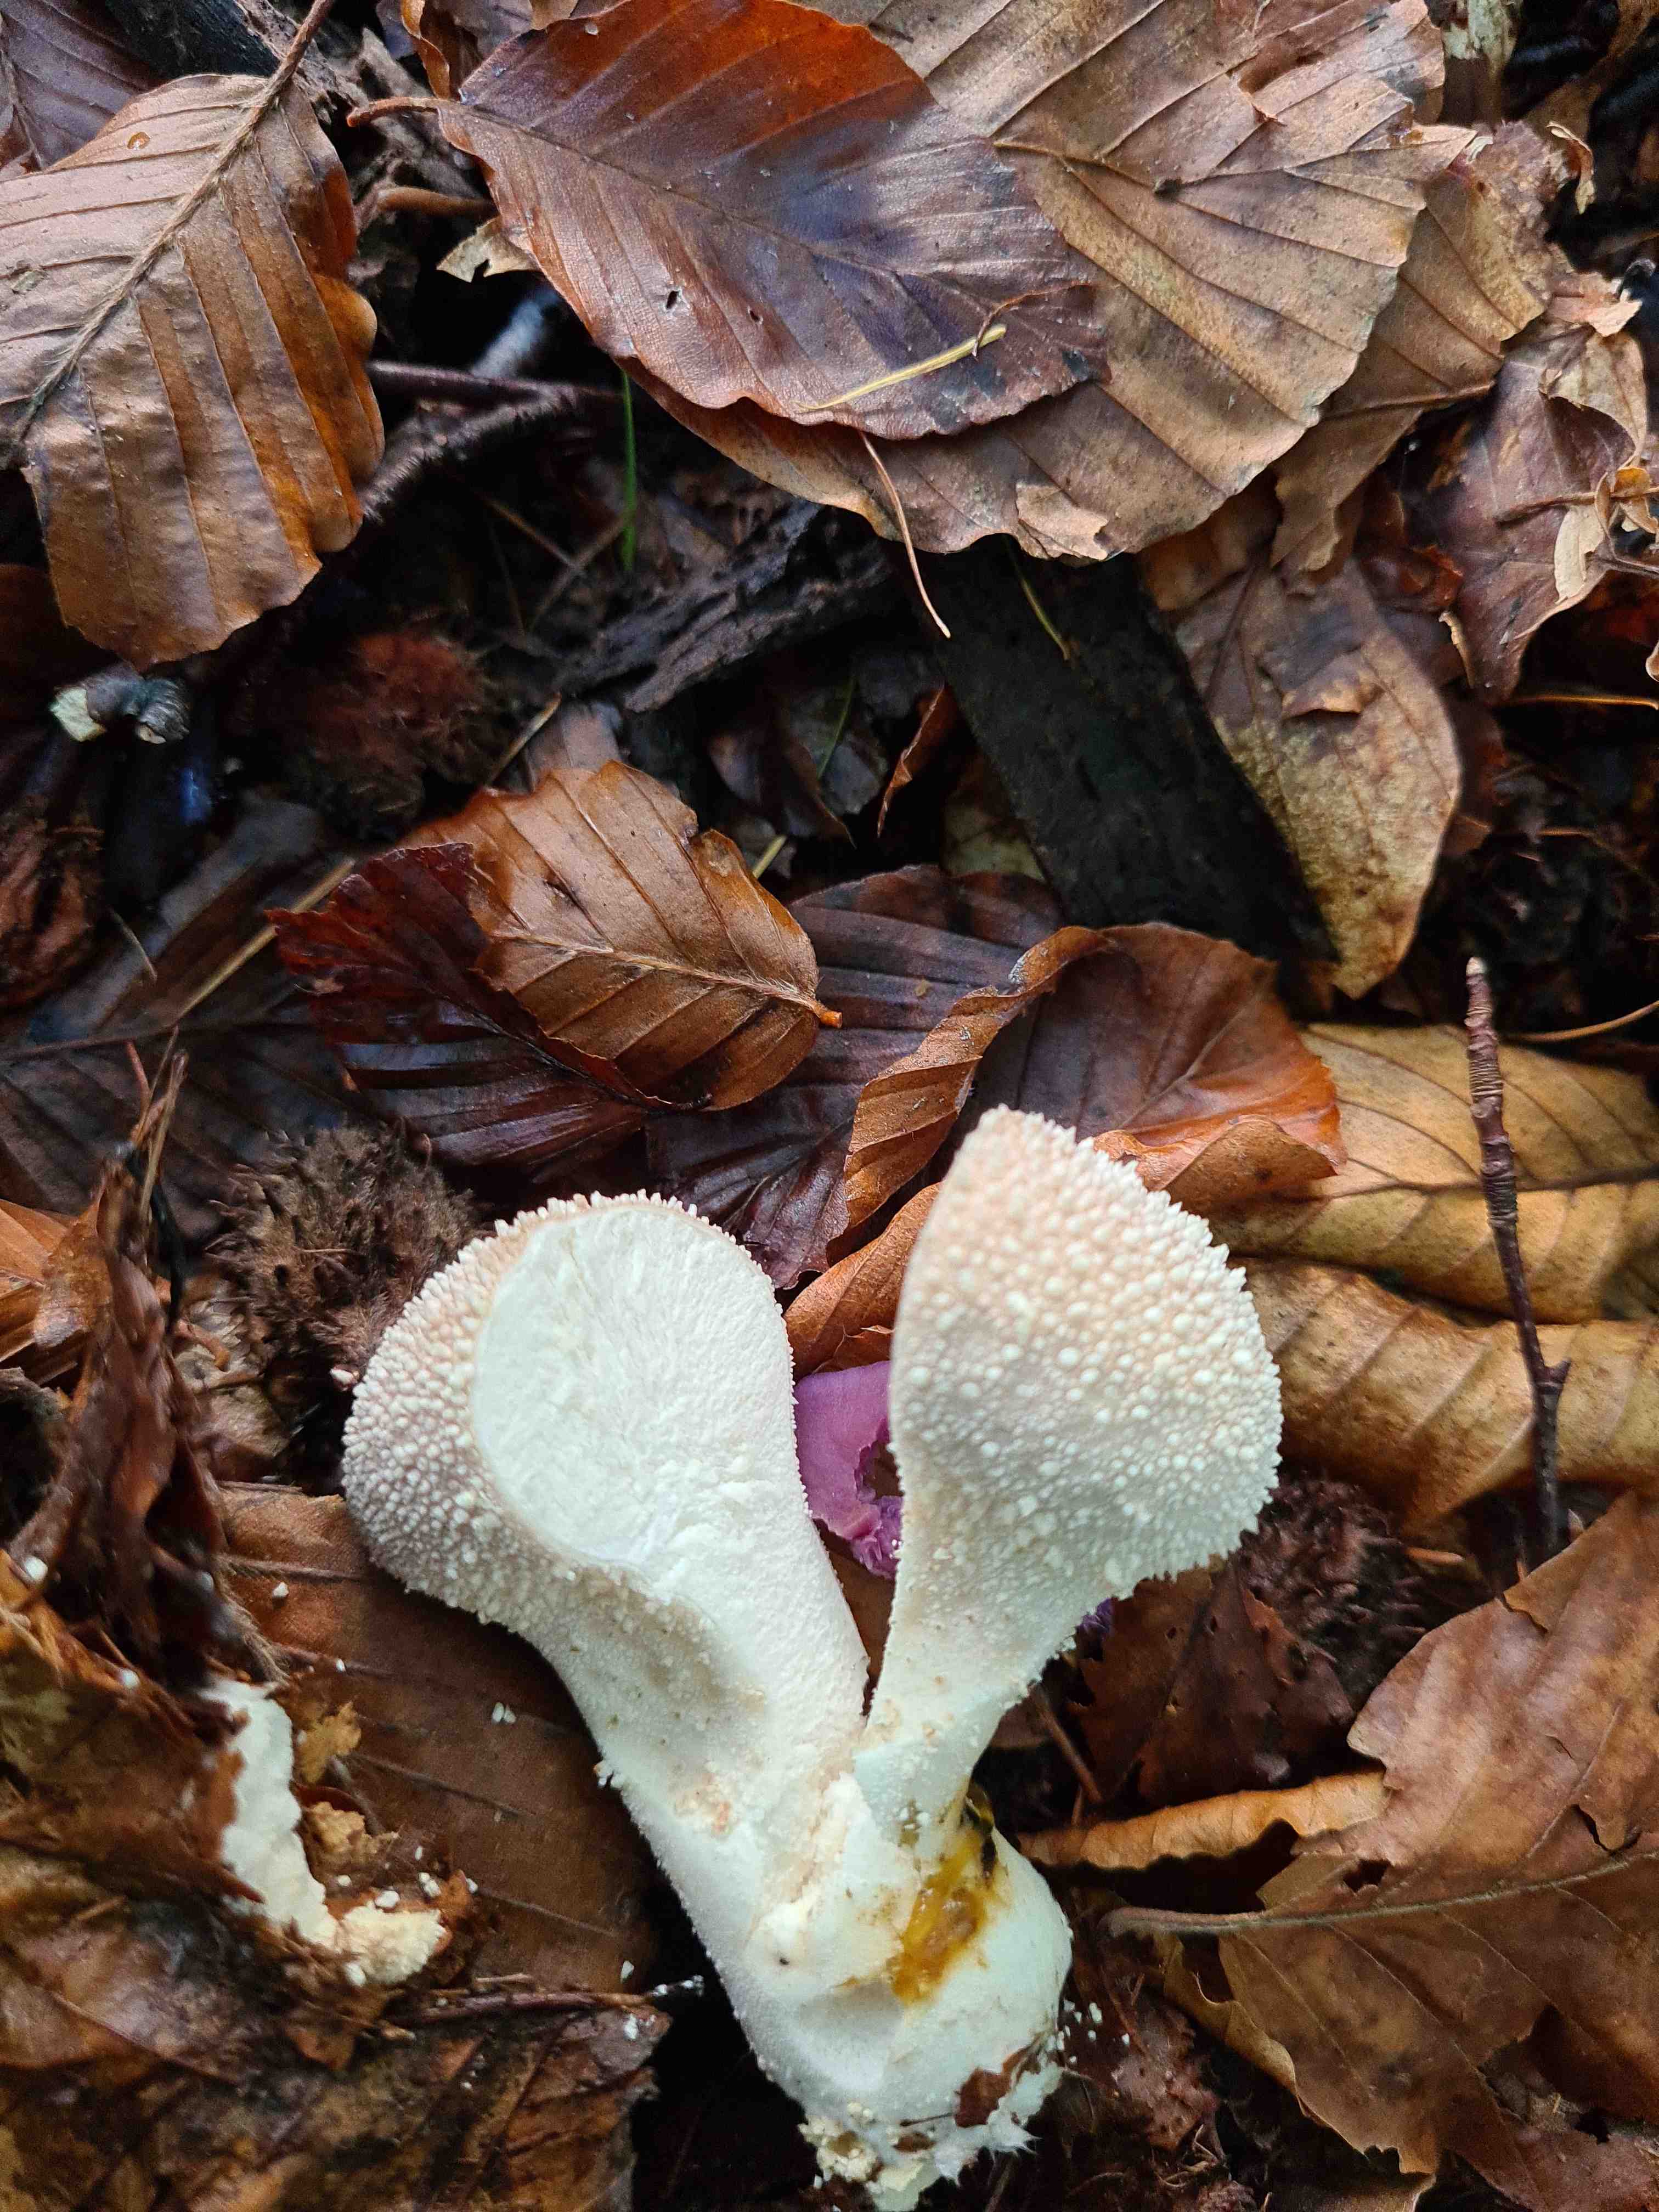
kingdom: Fungi
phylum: Basidiomycota
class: Agaricomycetes
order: Agaricales
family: Lycoperdaceae
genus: Lycoperdon
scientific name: Lycoperdon perlatum
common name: krystal-støvbold
